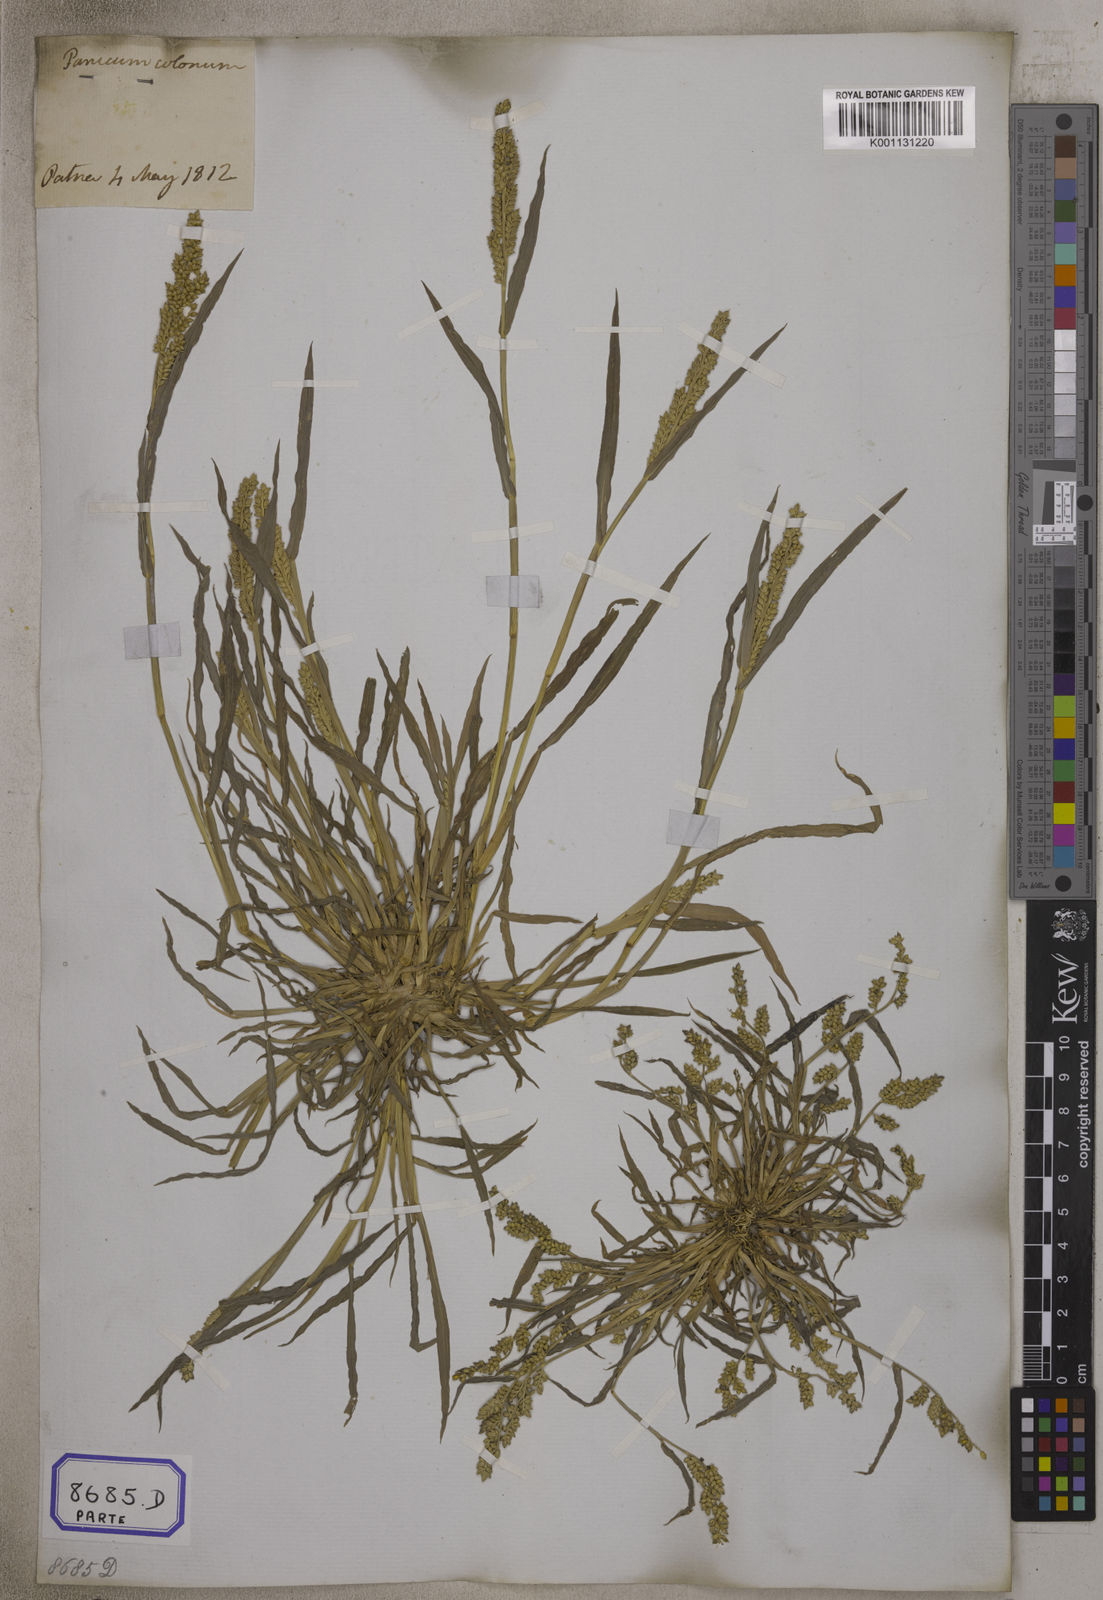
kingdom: Plantae
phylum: Tracheophyta
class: Liliopsida
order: Poales
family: Poaceae
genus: Echinochloa
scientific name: Echinochloa colonum
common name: Jungle rice
